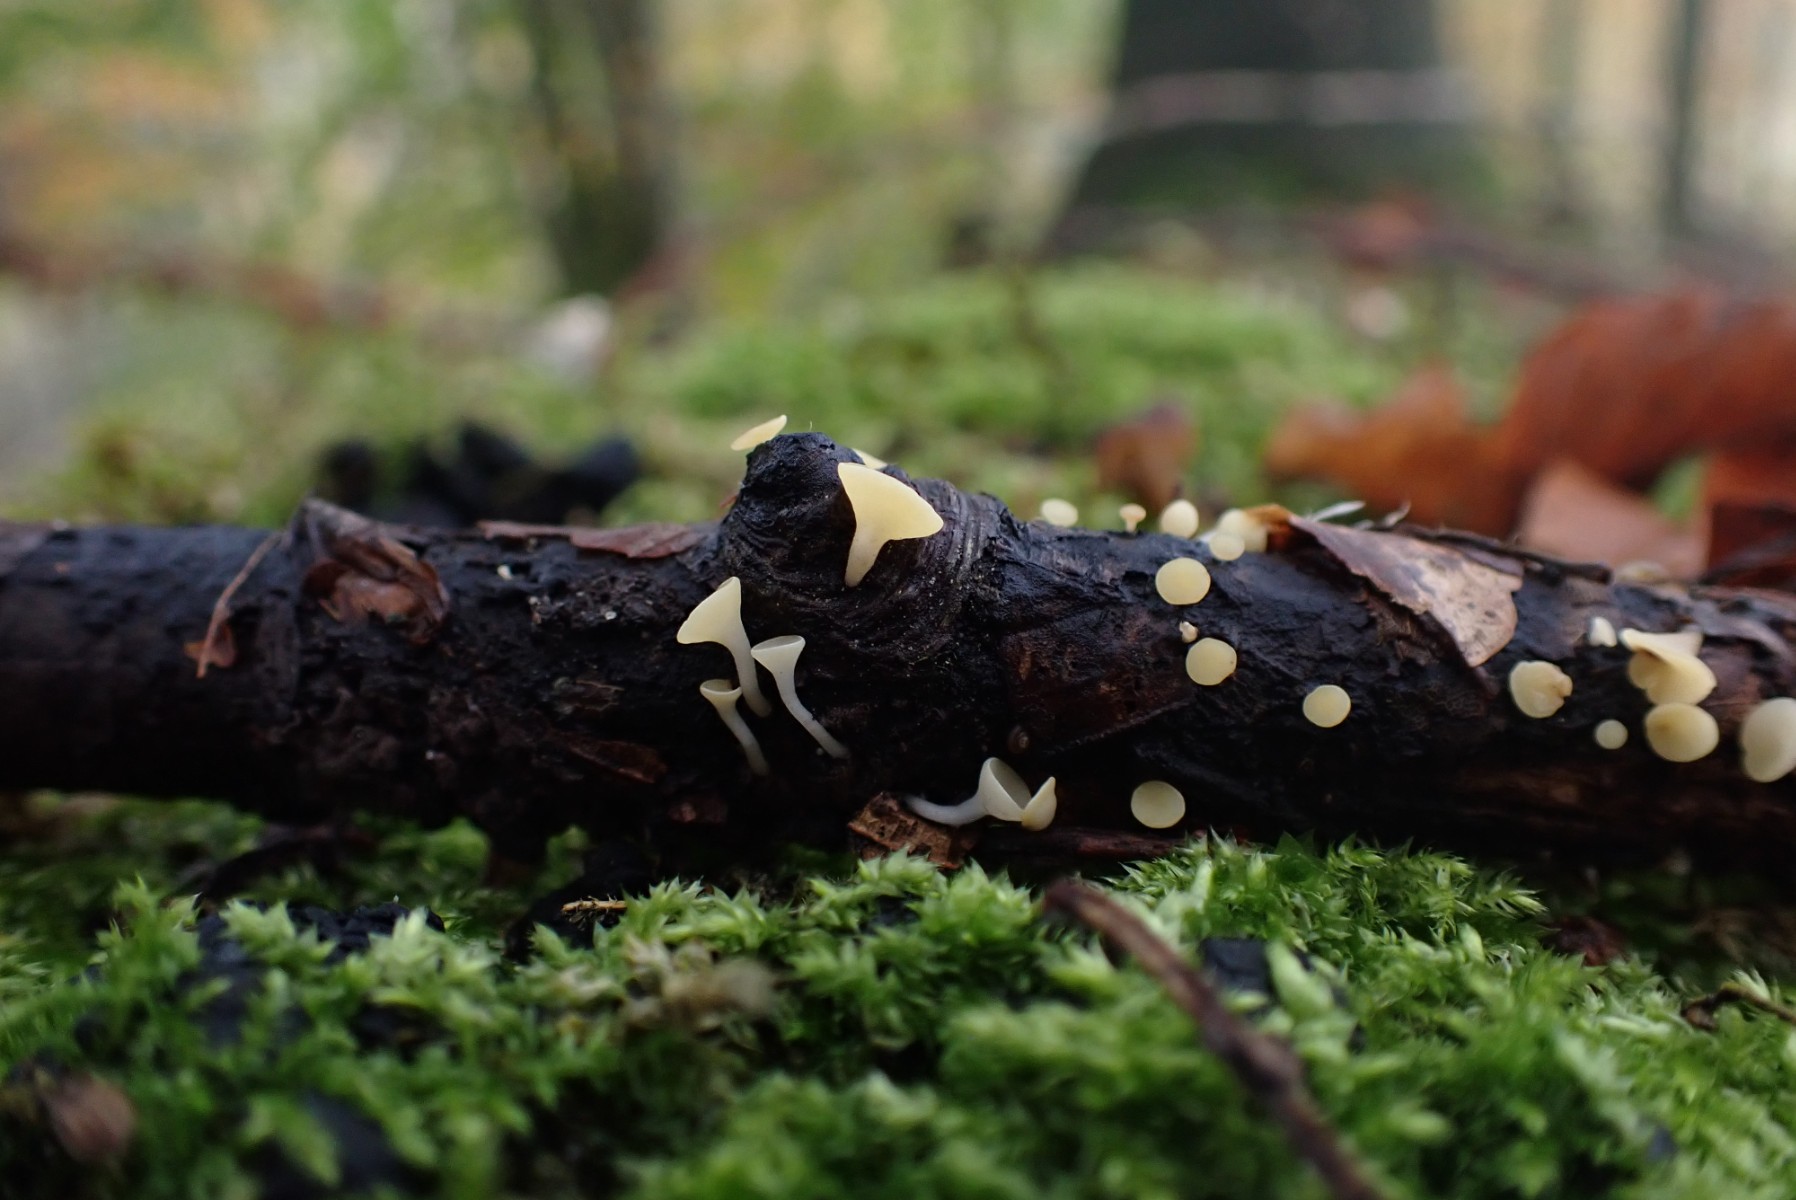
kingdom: Fungi
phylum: Ascomycota
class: Leotiomycetes
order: Helotiales
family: Helotiaceae
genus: Hymenoscyphus
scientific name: Hymenoscyphus serotinus
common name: krumsporet stilkskive
